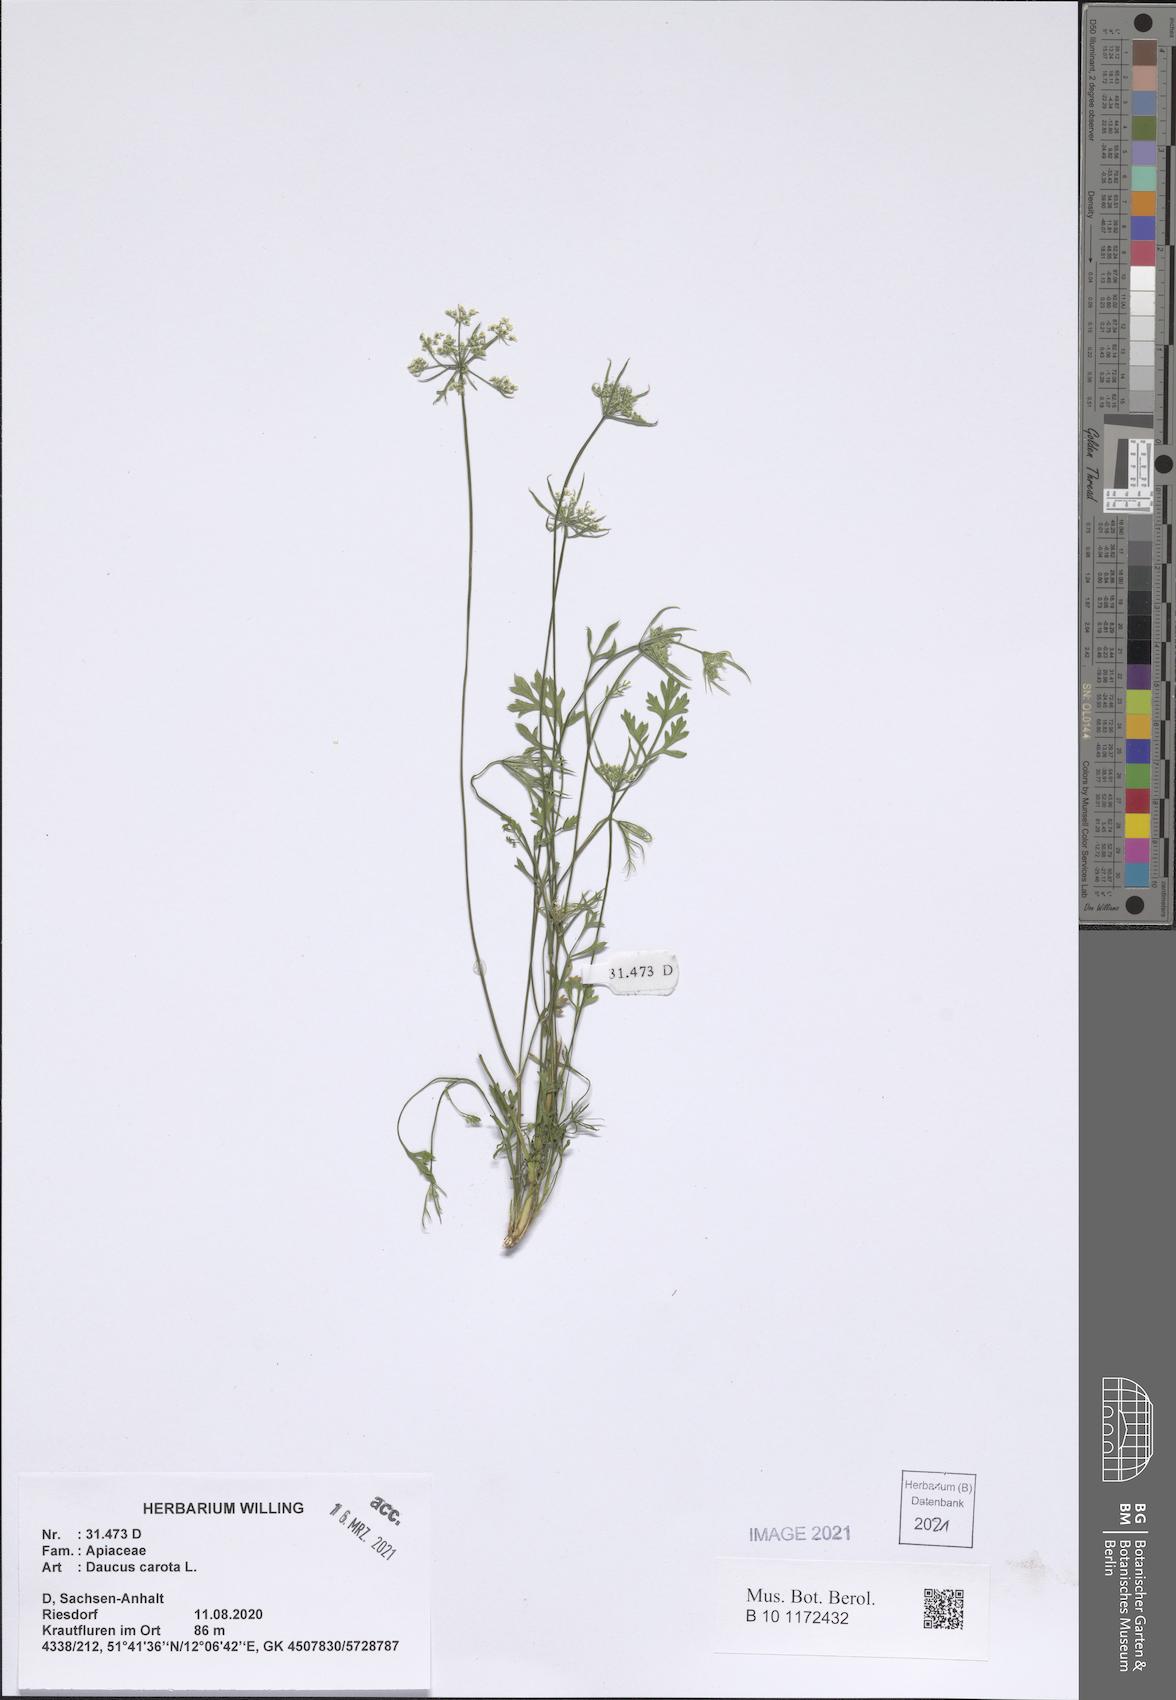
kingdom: Plantae
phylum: Tracheophyta
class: Magnoliopsida
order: Apiales
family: Apiaceae
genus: Daucus
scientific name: Daucus carota
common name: Wild carrot
